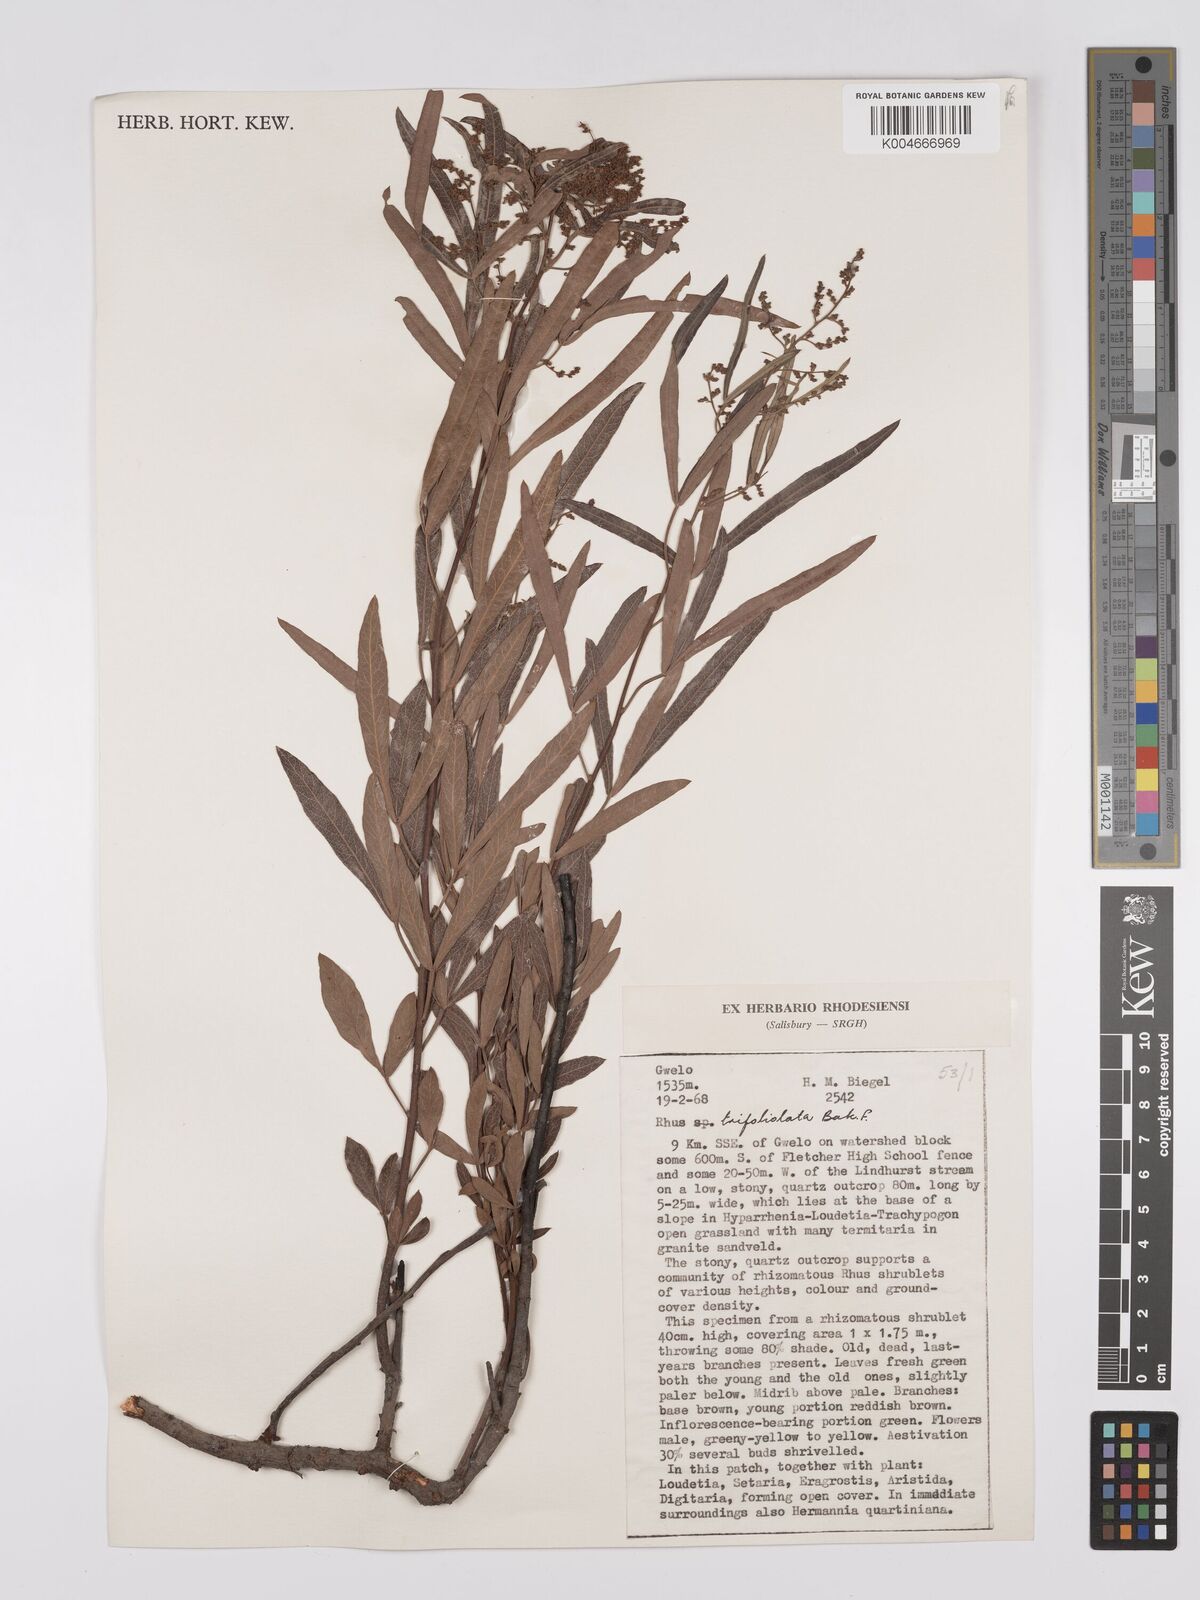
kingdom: Plantae
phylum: Tracheophyta
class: Magnoliopsida
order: Sapindales
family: Anacardiaceae
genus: Searsia
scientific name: Searsia magalismontana
